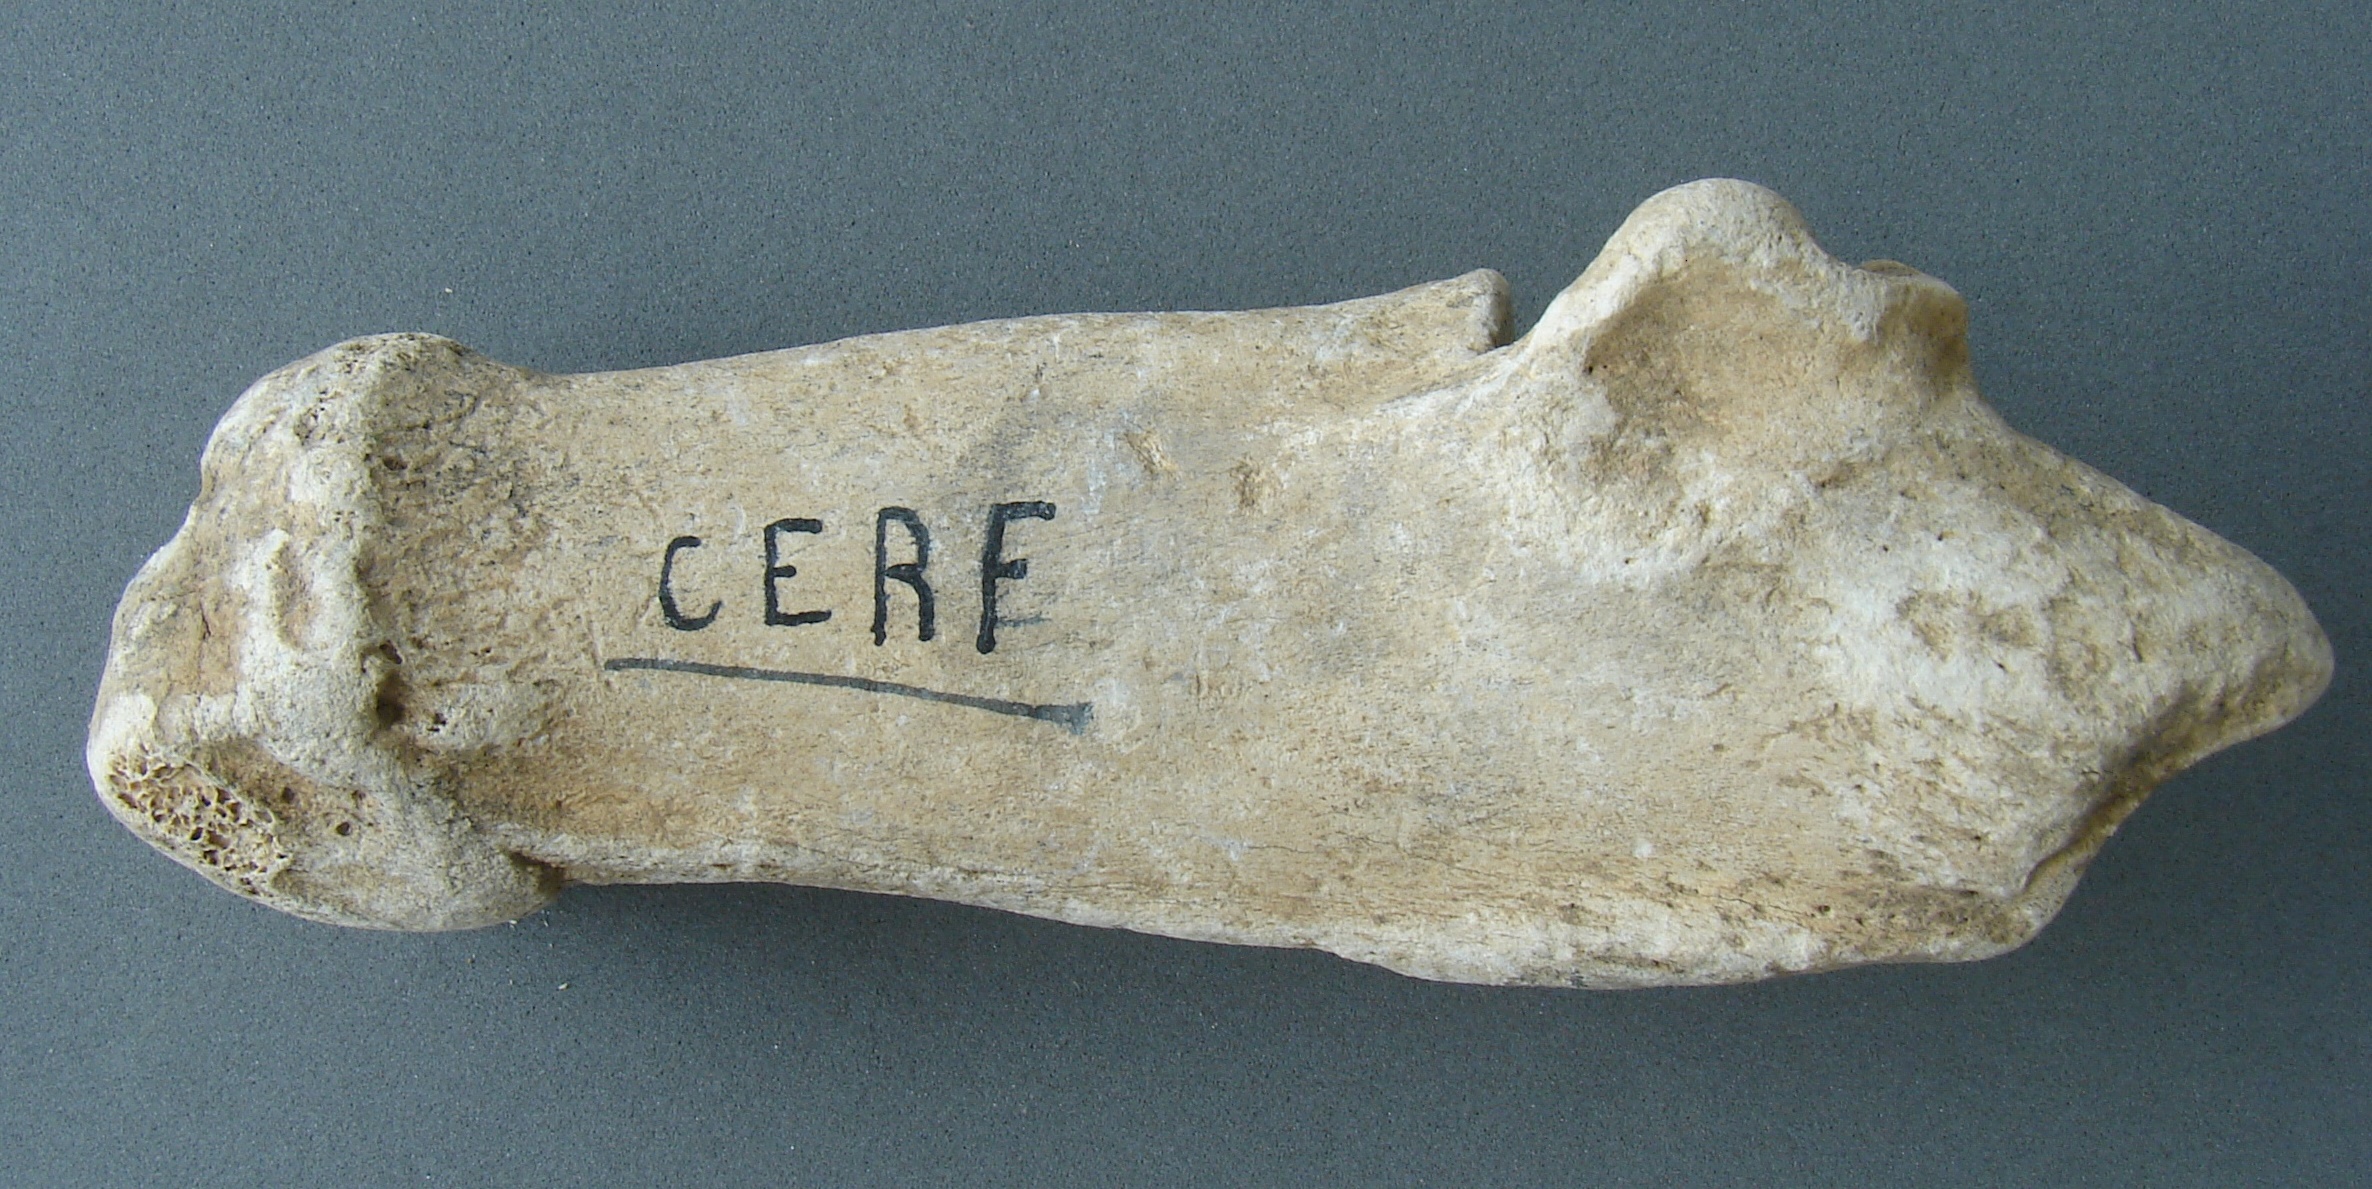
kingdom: Animalia
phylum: Chordata
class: Mammalia
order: Artiodactyla
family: Cervidae
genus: Cervus
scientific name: Cervus elaphus
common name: Red deer
